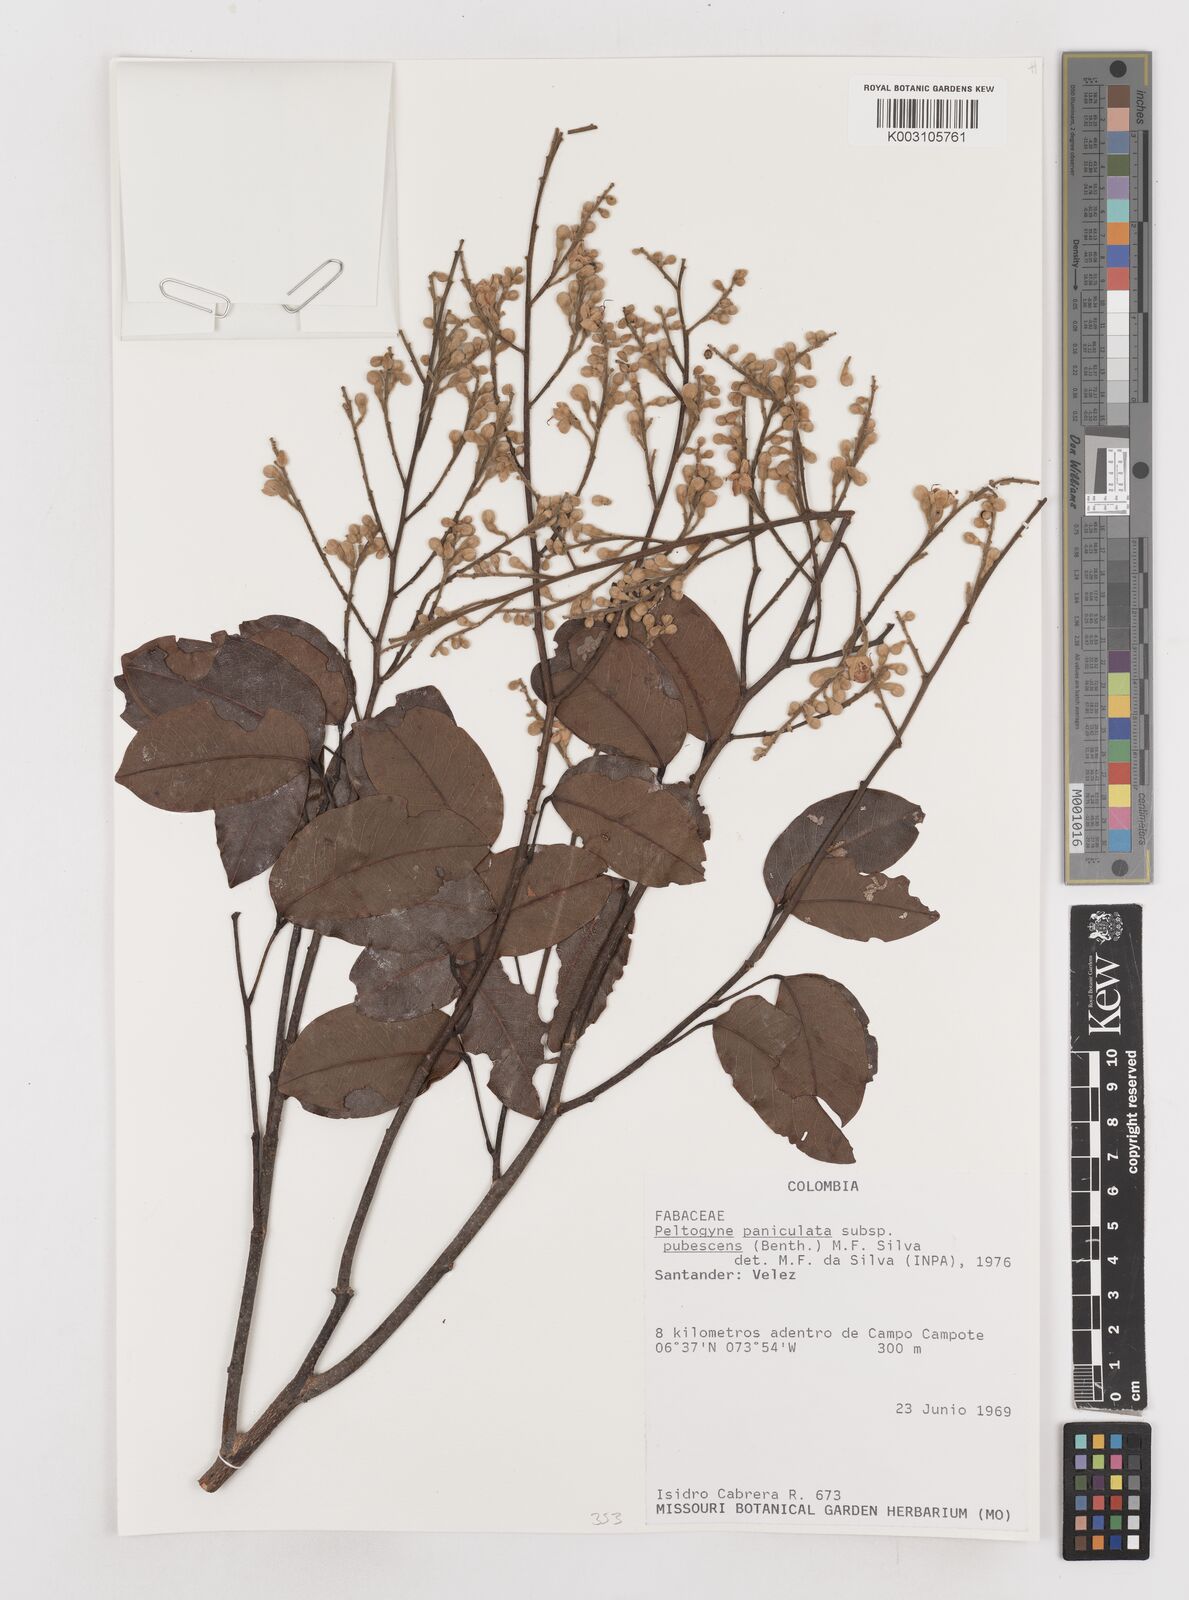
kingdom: Plantae
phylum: Tracheophyta
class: Magnoliopsida
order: Fabales
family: Fabaceae
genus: Peltogyne
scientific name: Peltogyne paniculata
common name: Purpleheart
